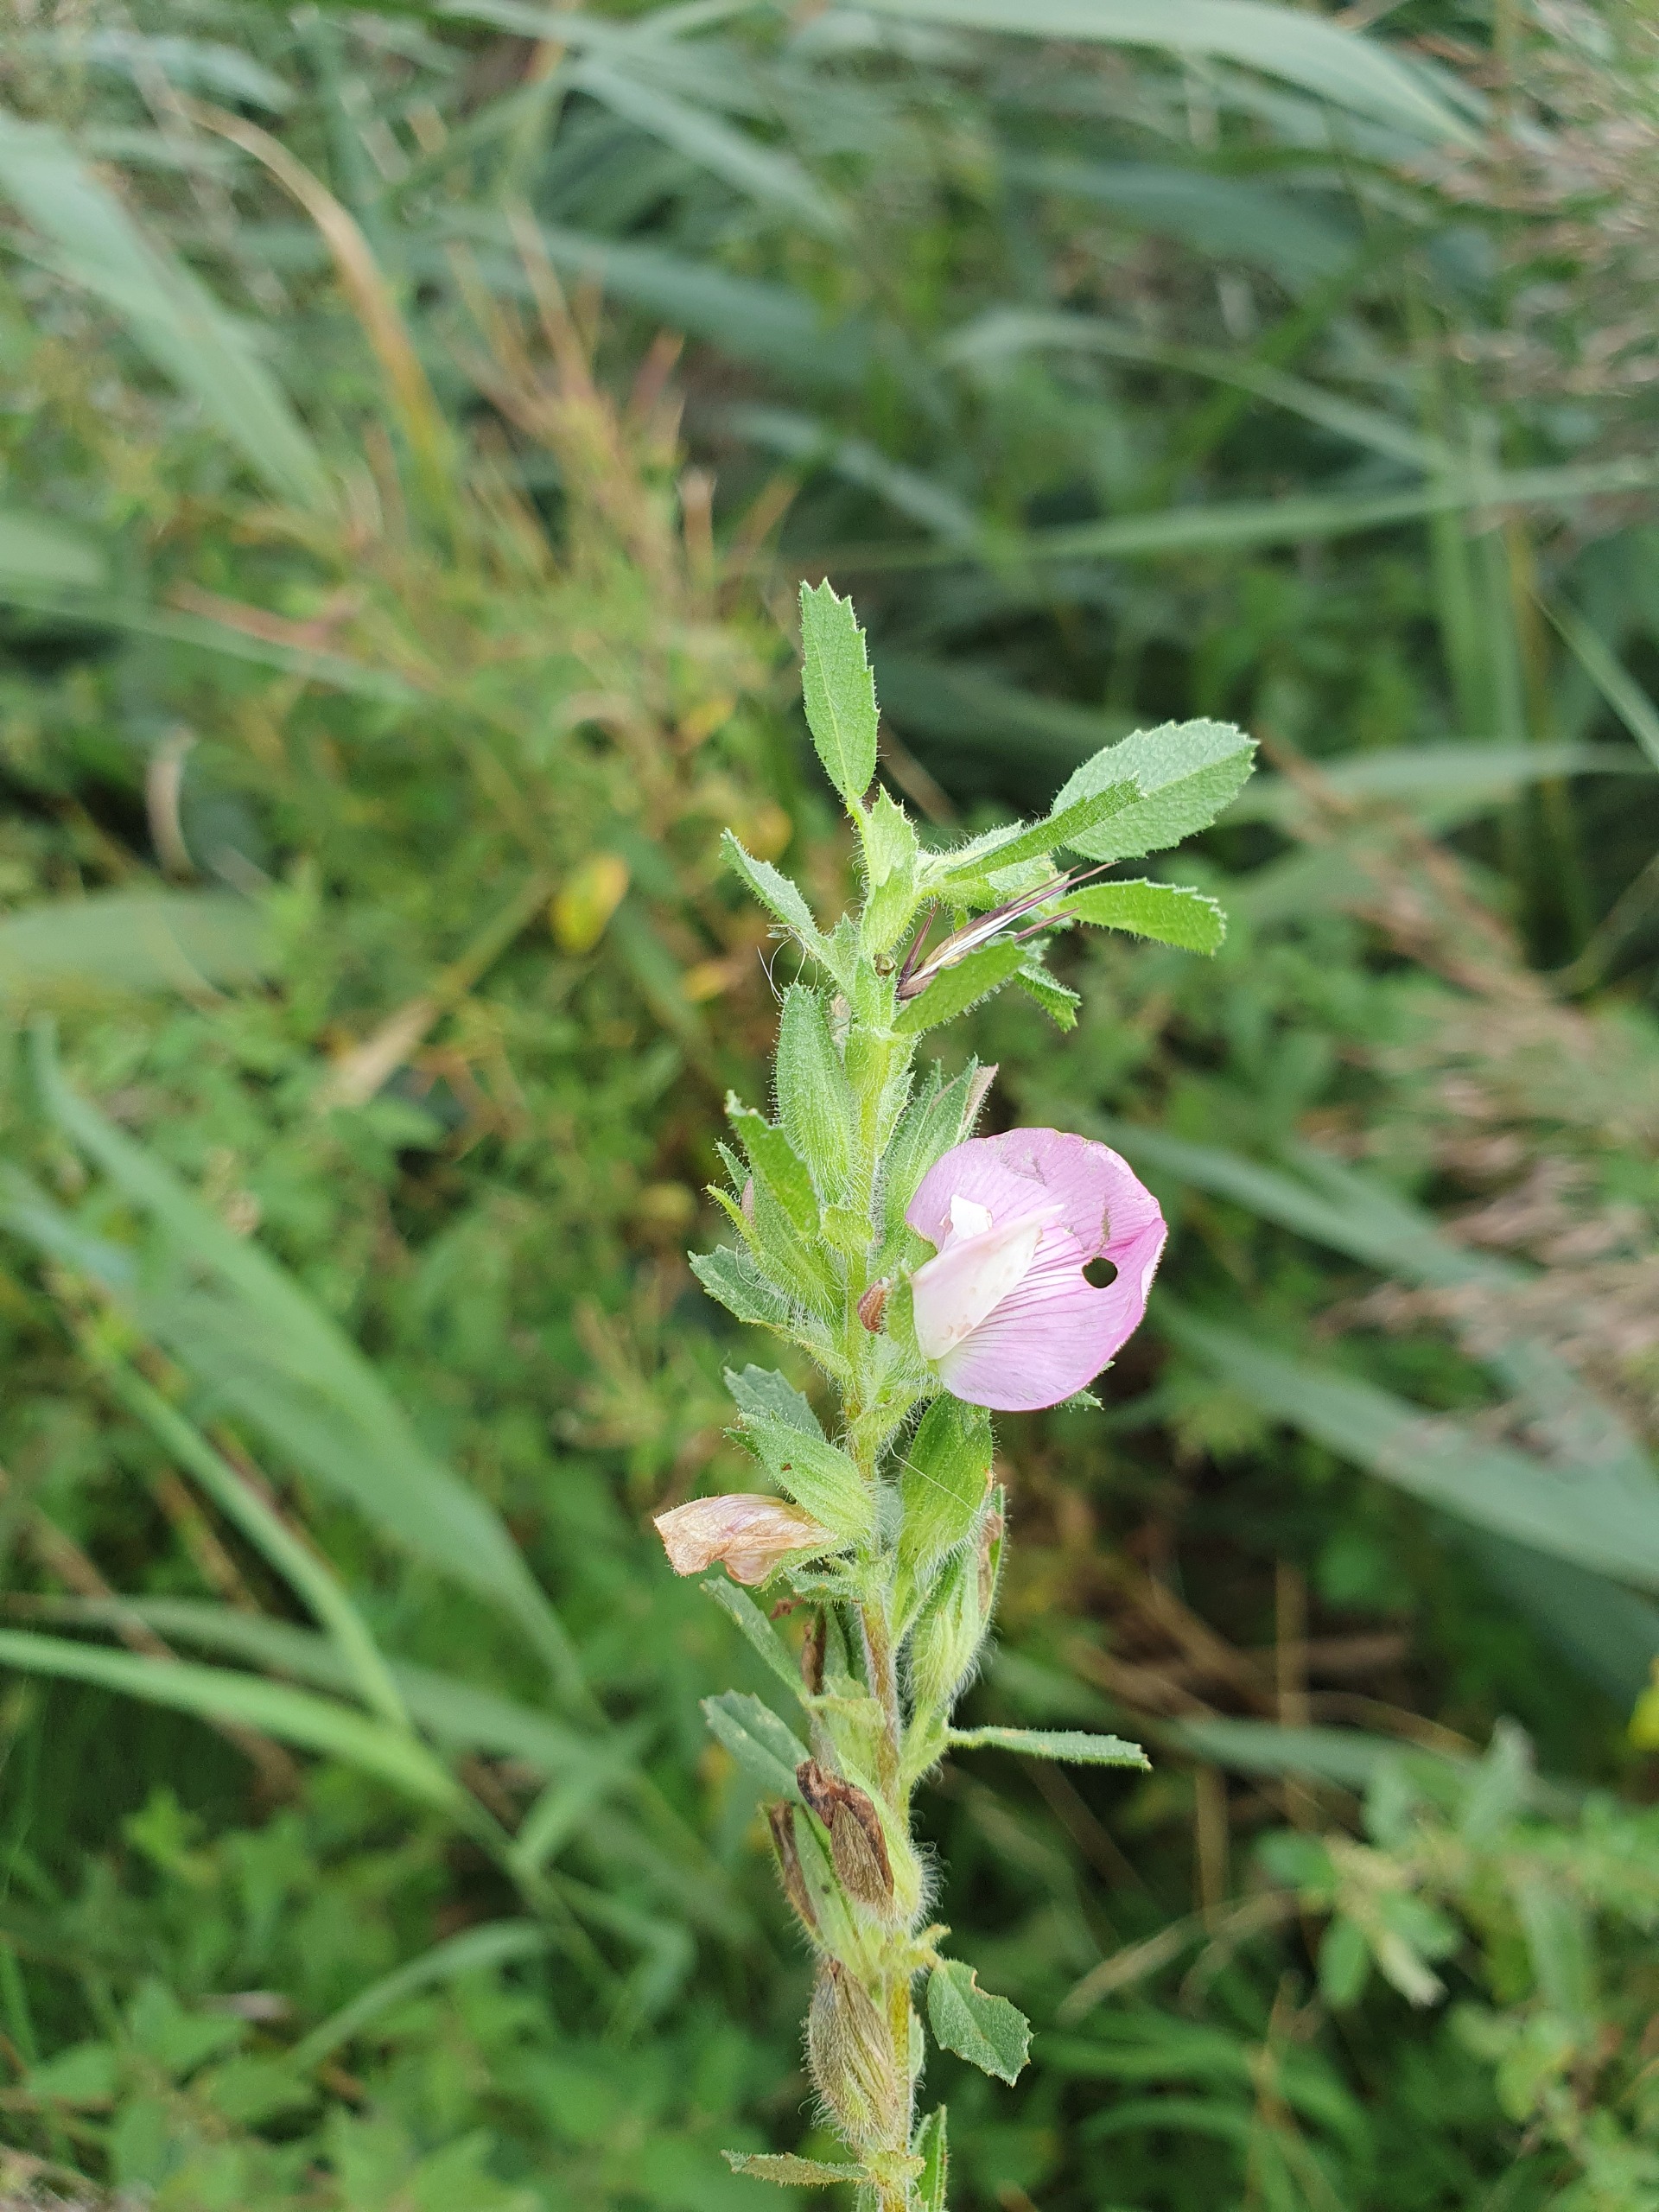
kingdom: Plantae
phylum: Tracheophyta
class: Magnoliopsida
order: Fabales
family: Fabaceae
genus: Ononis
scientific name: Ononis spinosa
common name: Mark-krageklo
